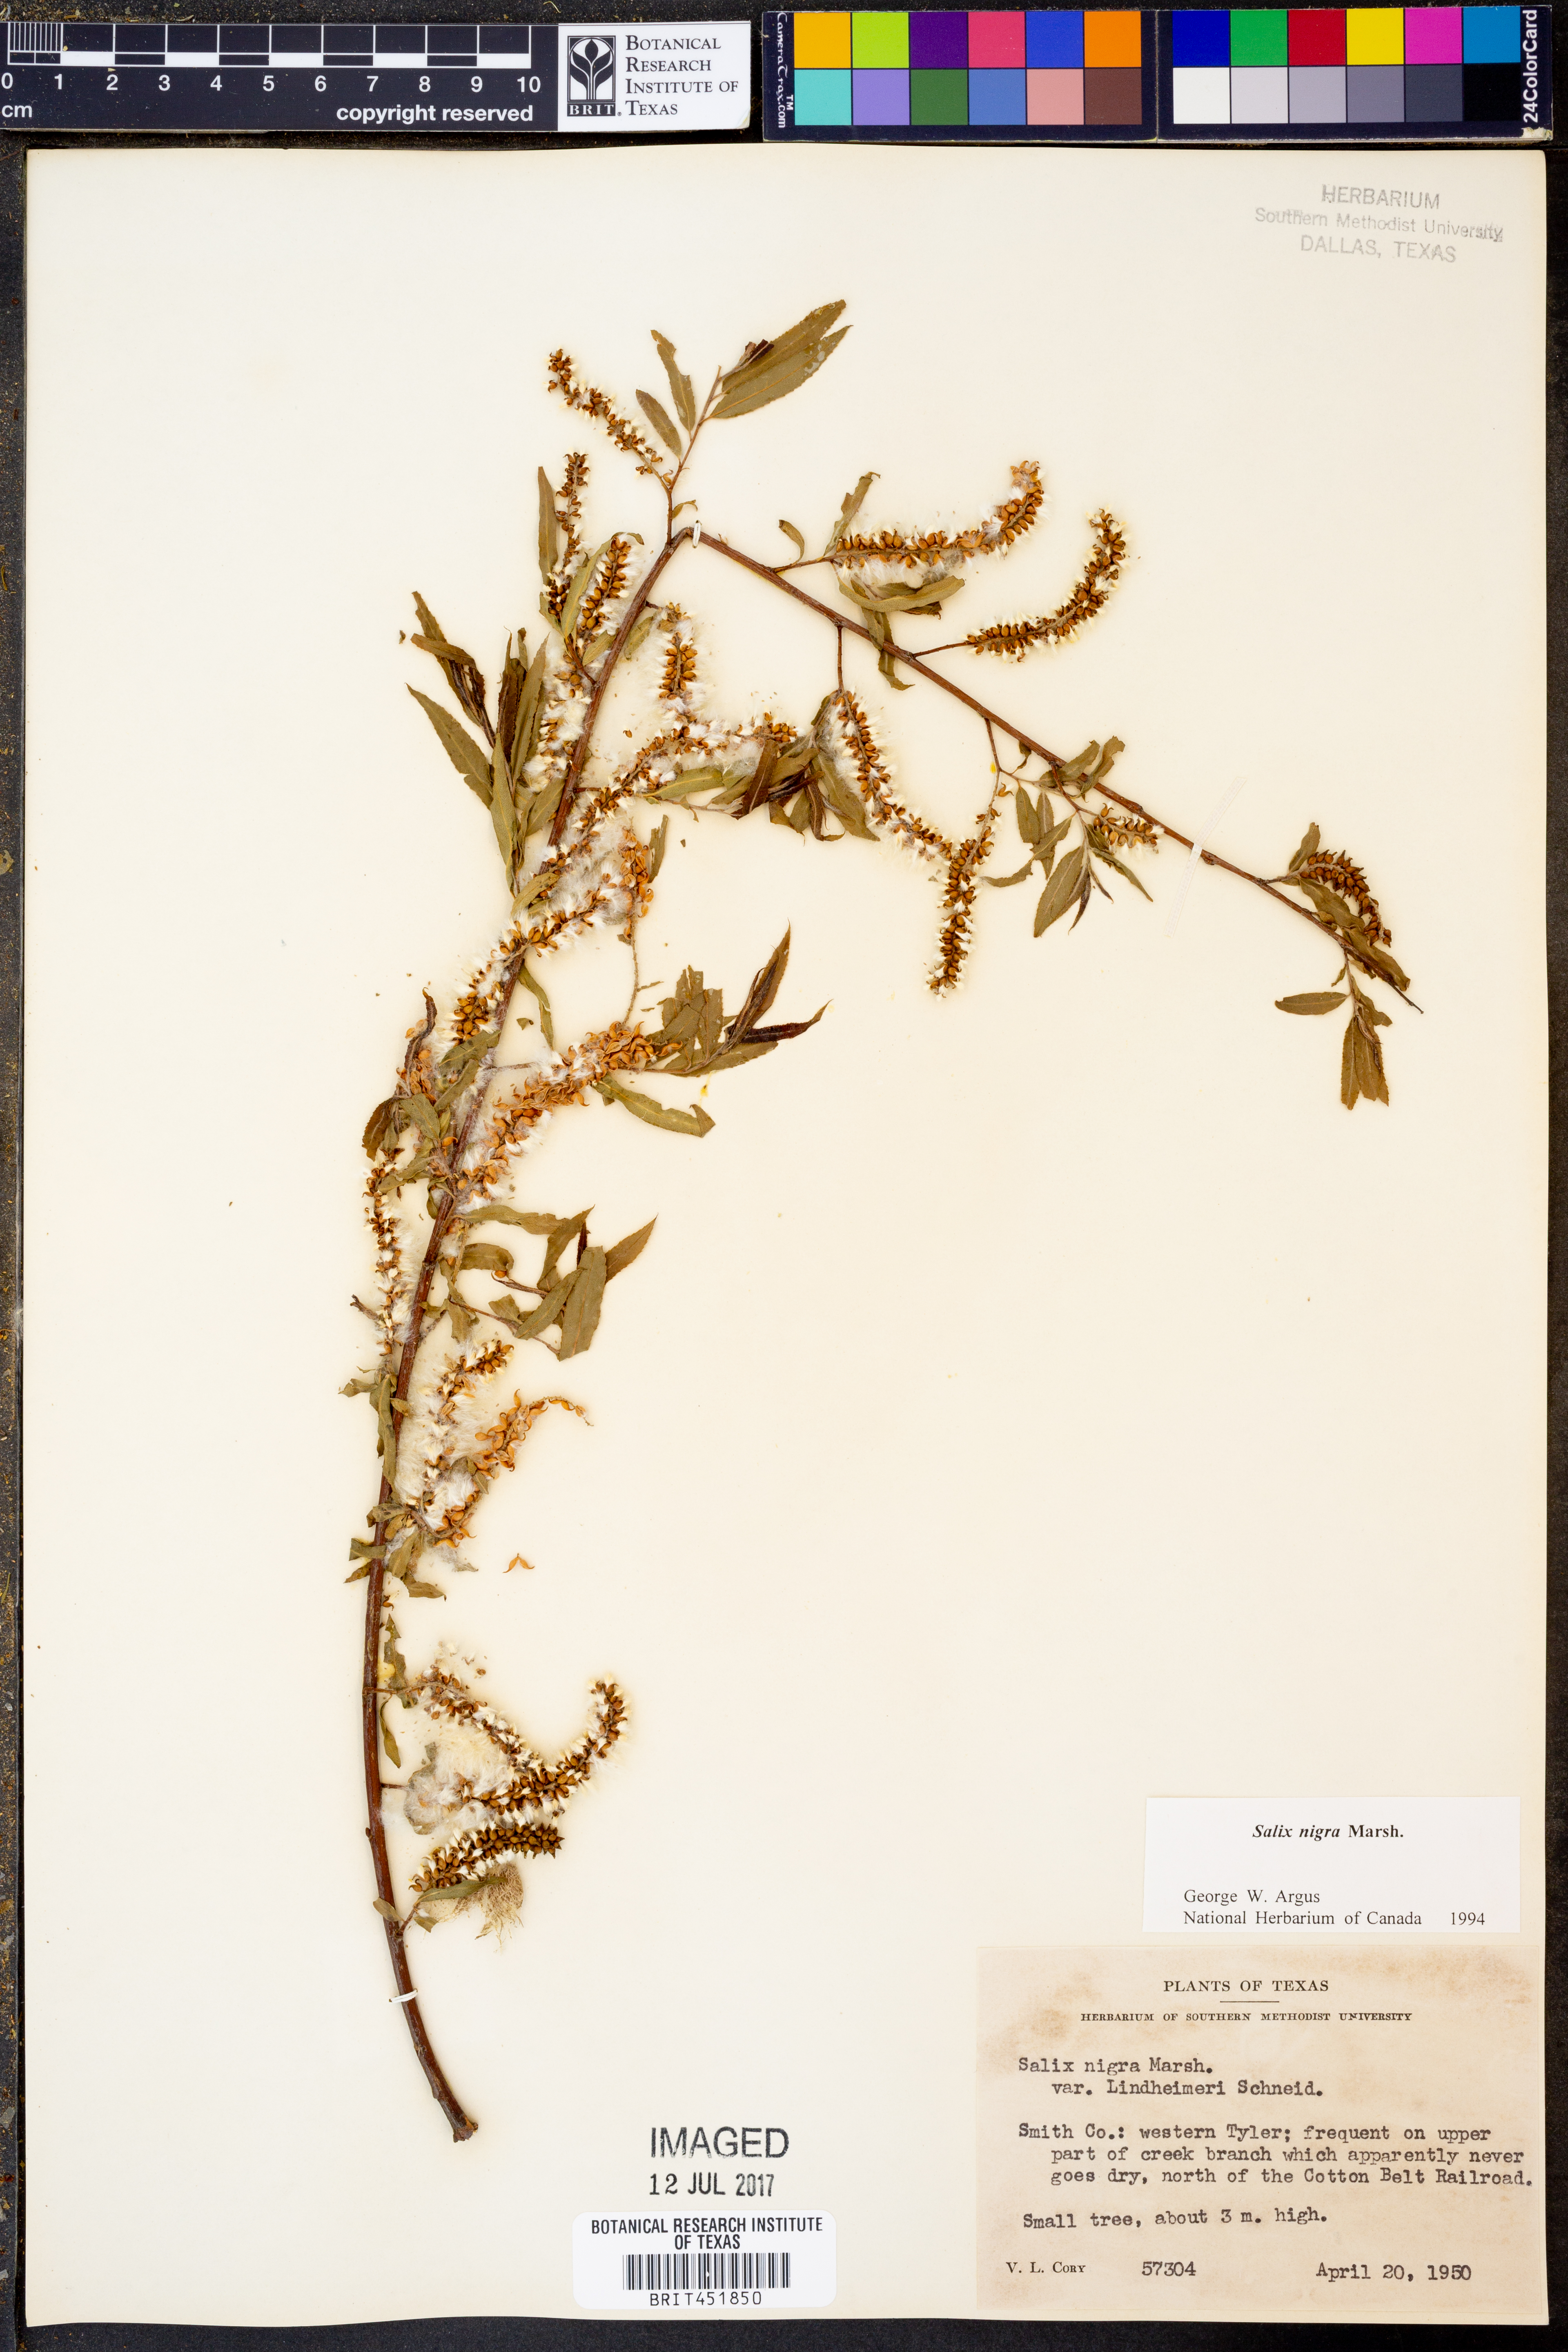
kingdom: Plantae
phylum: Tracheophyta
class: Magnoliopsida
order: Malpighiales
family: Salicaceae
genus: Salix
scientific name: Salix nigra
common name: Black willow
